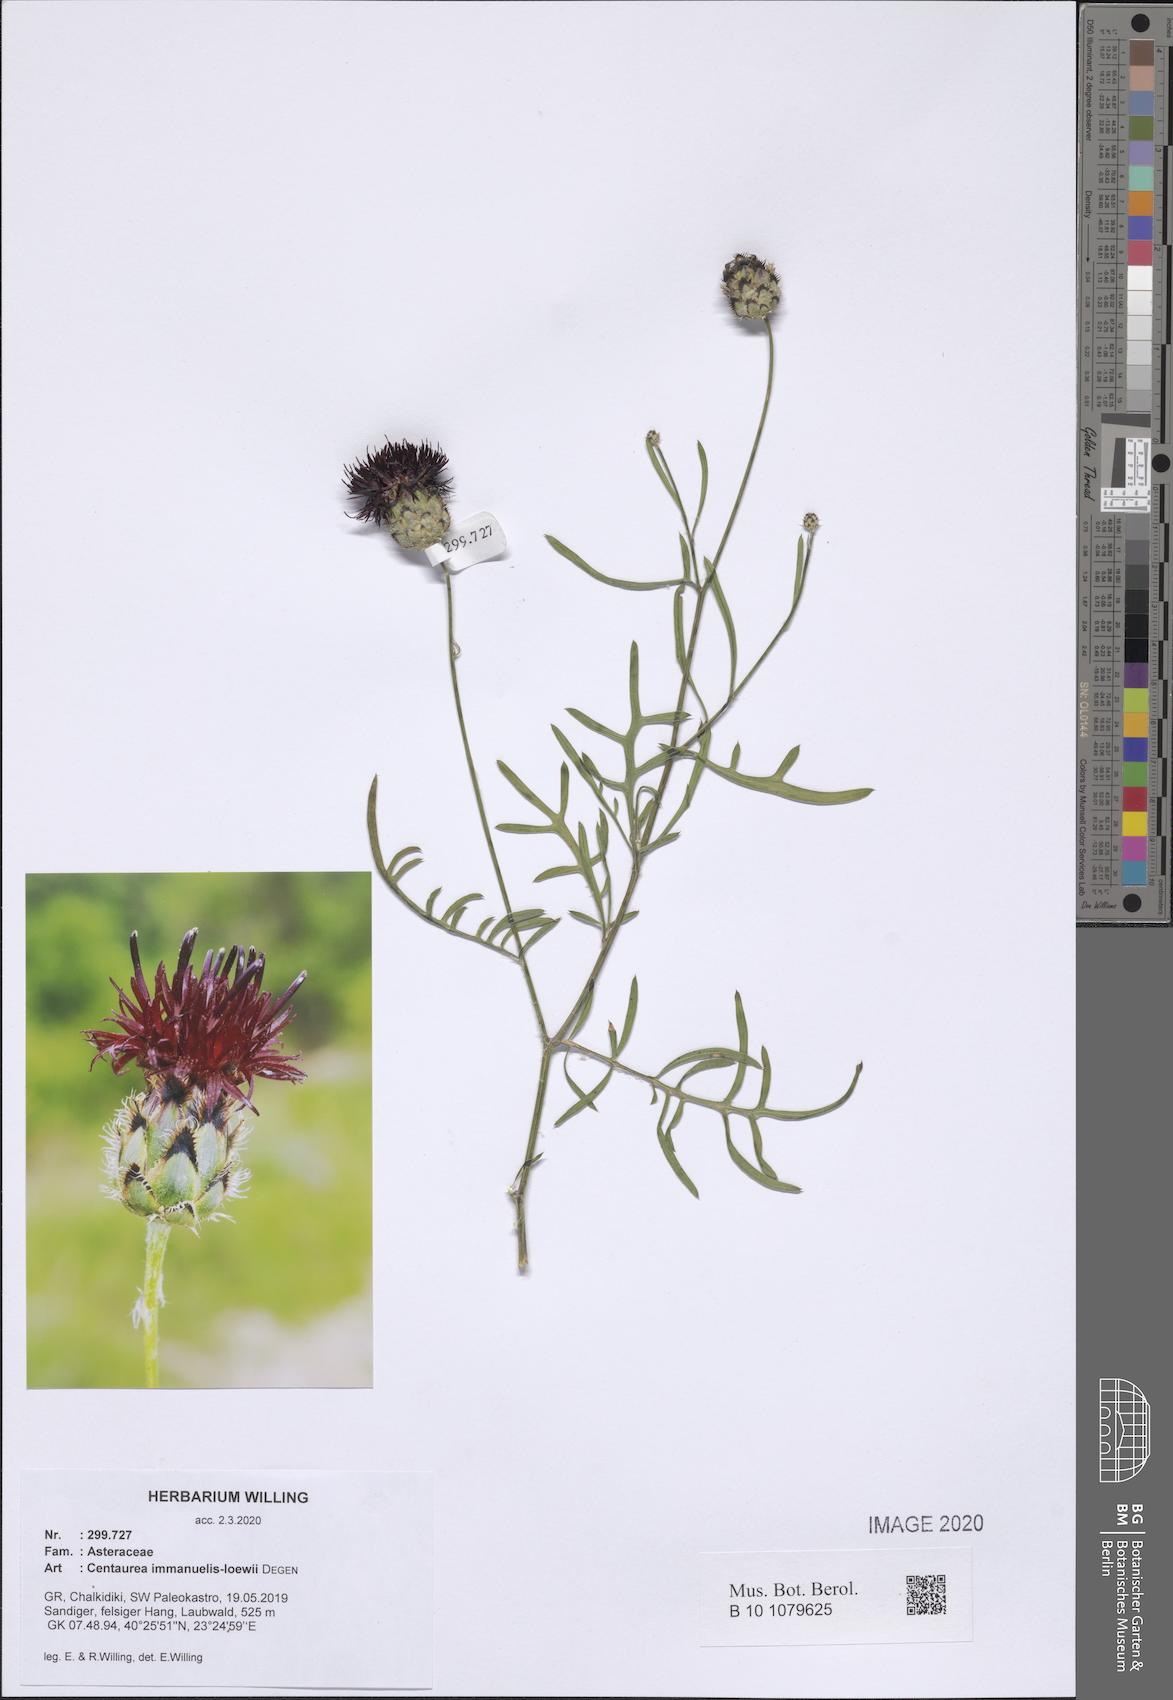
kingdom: Plantae
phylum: Tracheophyta
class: Magnoliopsida
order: Asterales
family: Asteraceae
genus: Centaurea
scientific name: Centaurea immanuelis-loewii
